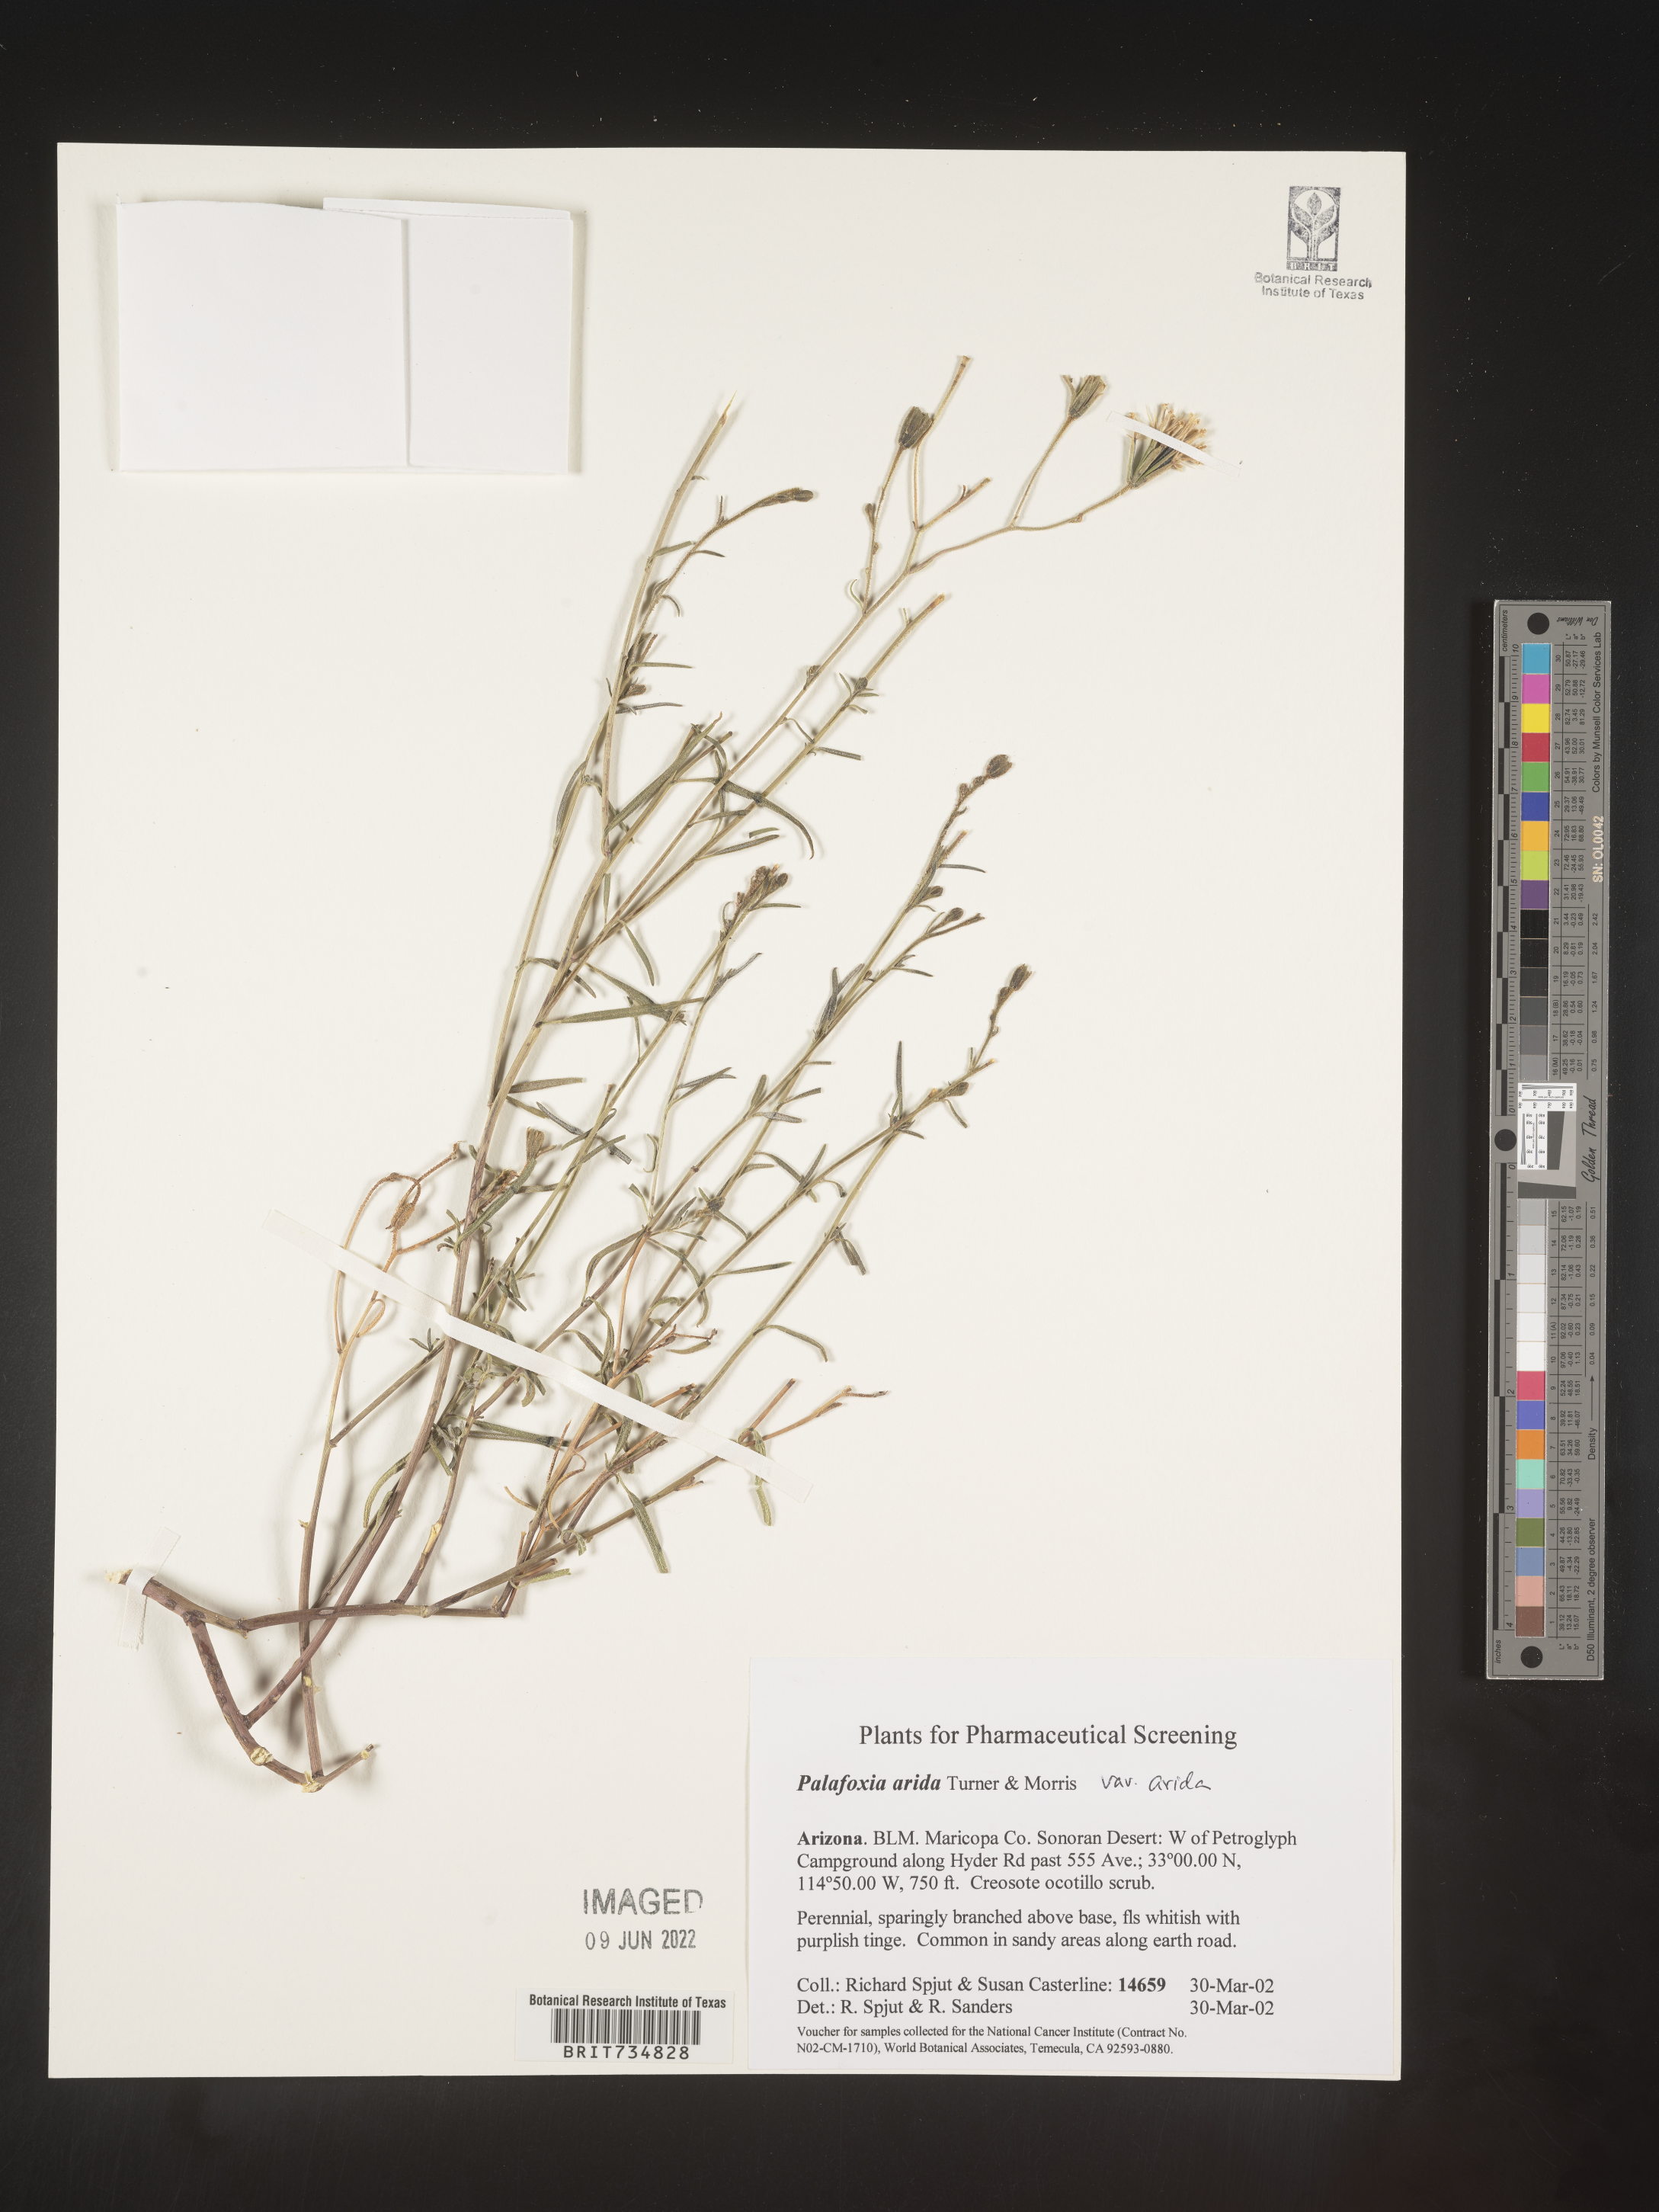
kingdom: Plantae
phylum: Tracheophyta
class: Magnoliopsida
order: Asterales
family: Asteraceae
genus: Palafoxia
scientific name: Palafoxia arida
